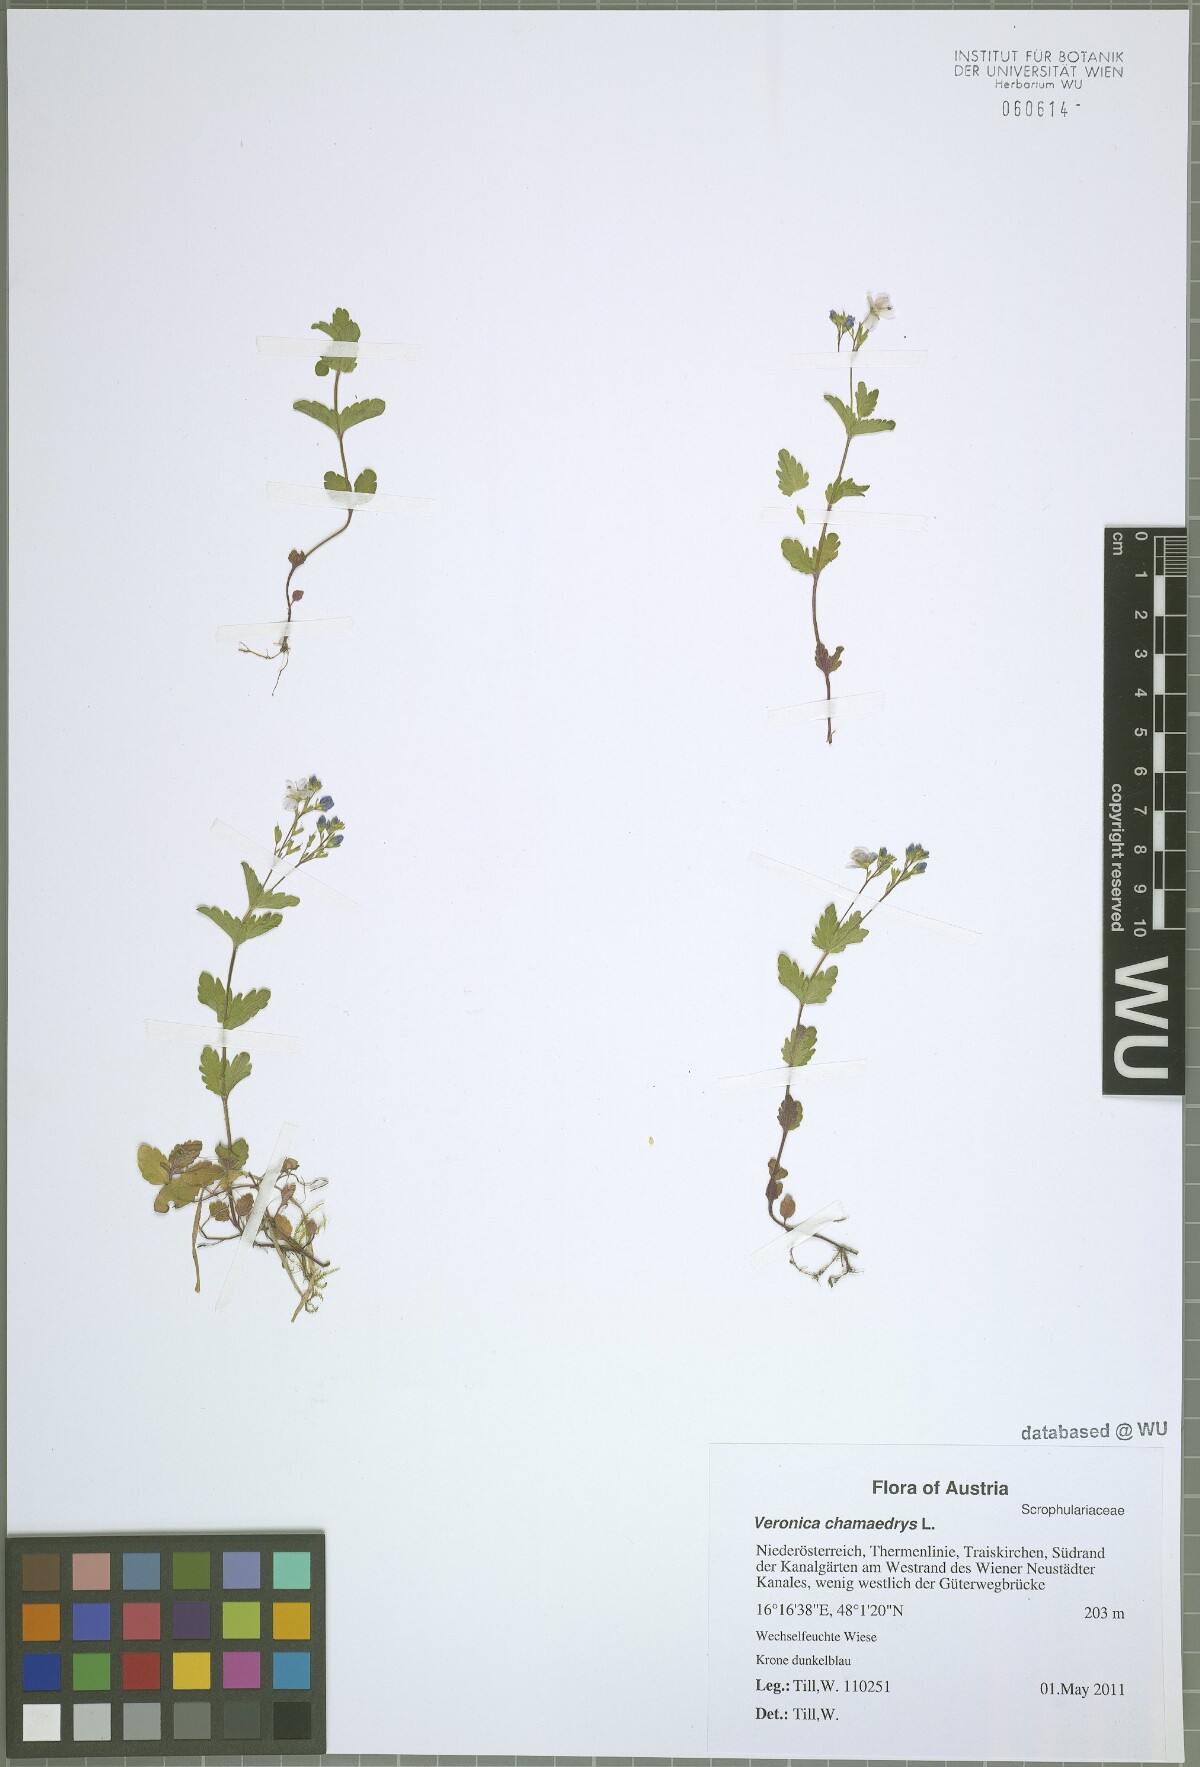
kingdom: Plantae
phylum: Tracheophyta
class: Magnoliopsida
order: Lamiales
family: Plantaginaceae
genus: Veronica
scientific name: Veronica chamaedrys
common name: Germander speedwell
